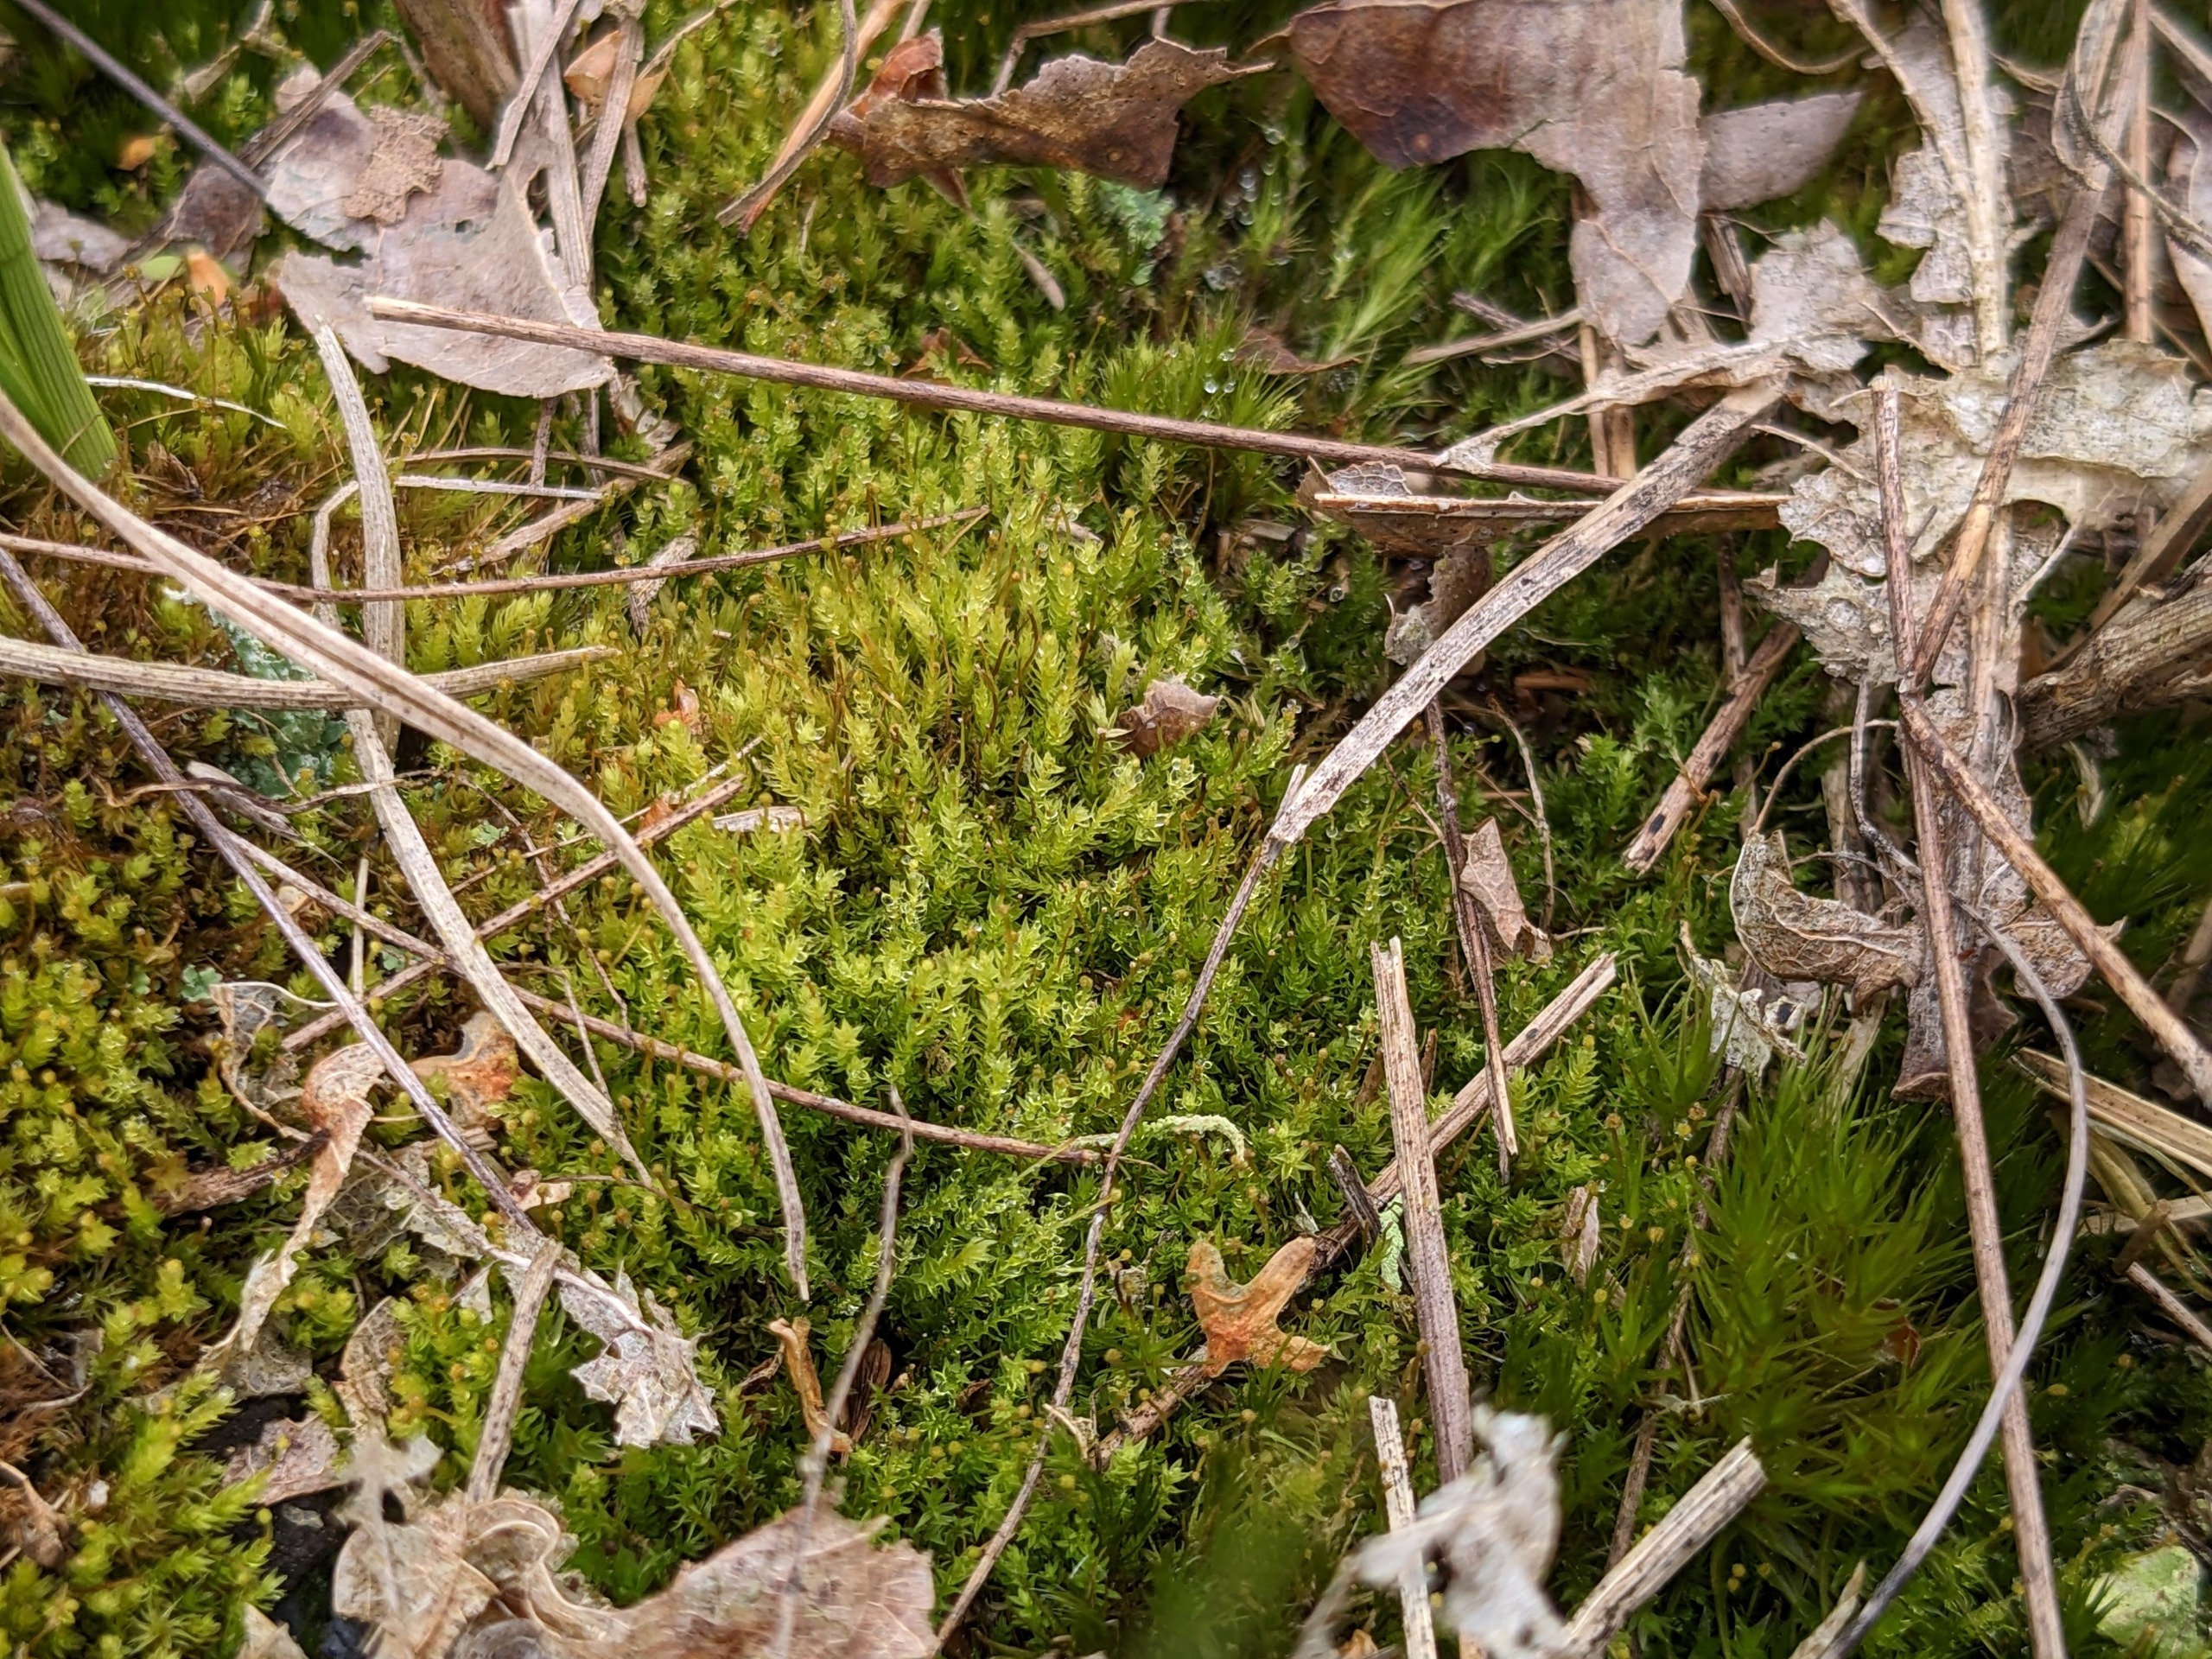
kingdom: Plantae
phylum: Bryophyta
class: Bryopsida
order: Aulacomniales
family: Aulacomniaceae
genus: Aulacomnium
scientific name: Aulacomnium androgynum
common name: Kugle-filtmos
